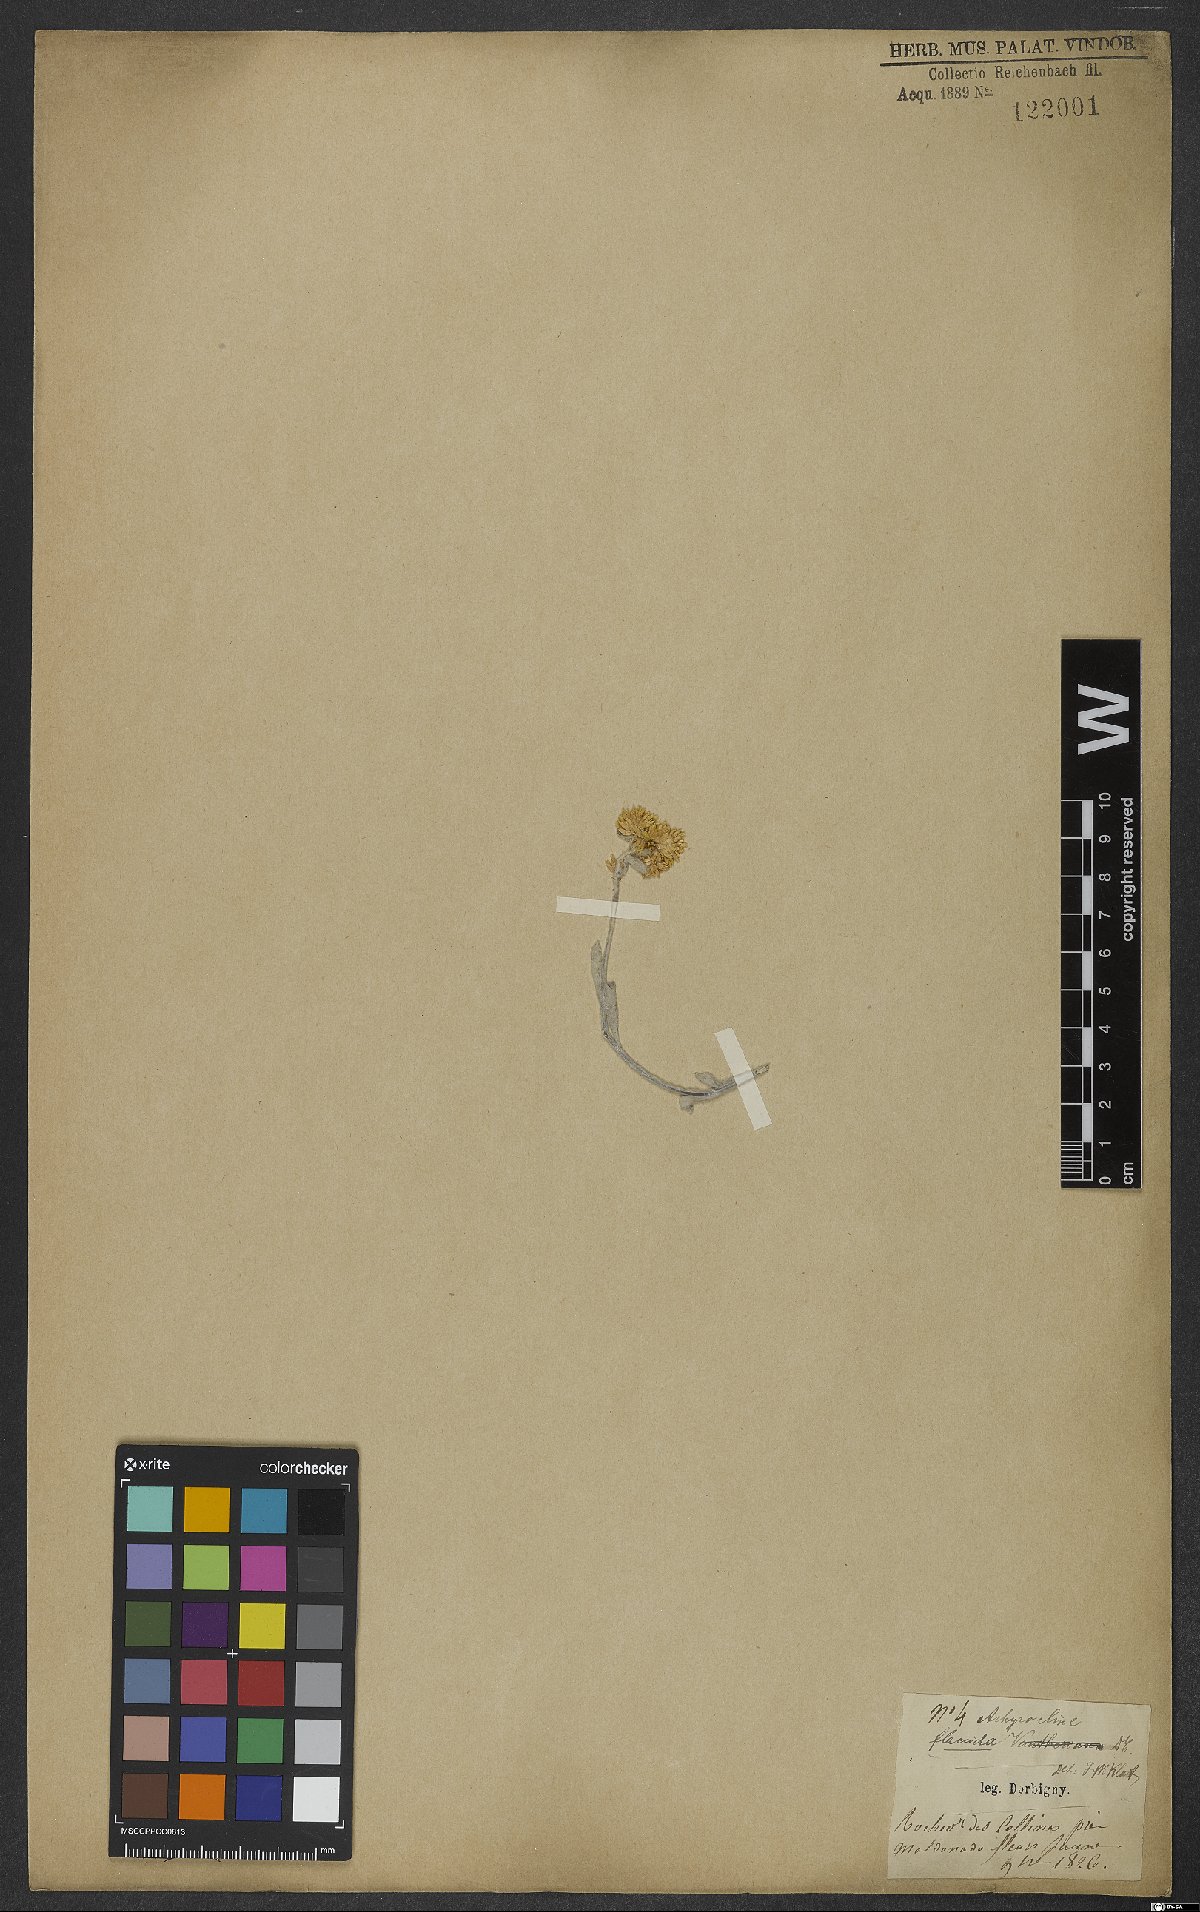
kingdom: Plantae
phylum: Tracheophyta
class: Magnoliopsida
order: Asterales
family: Asteraceae
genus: Achyrocline
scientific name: Achyrocline flaccida
